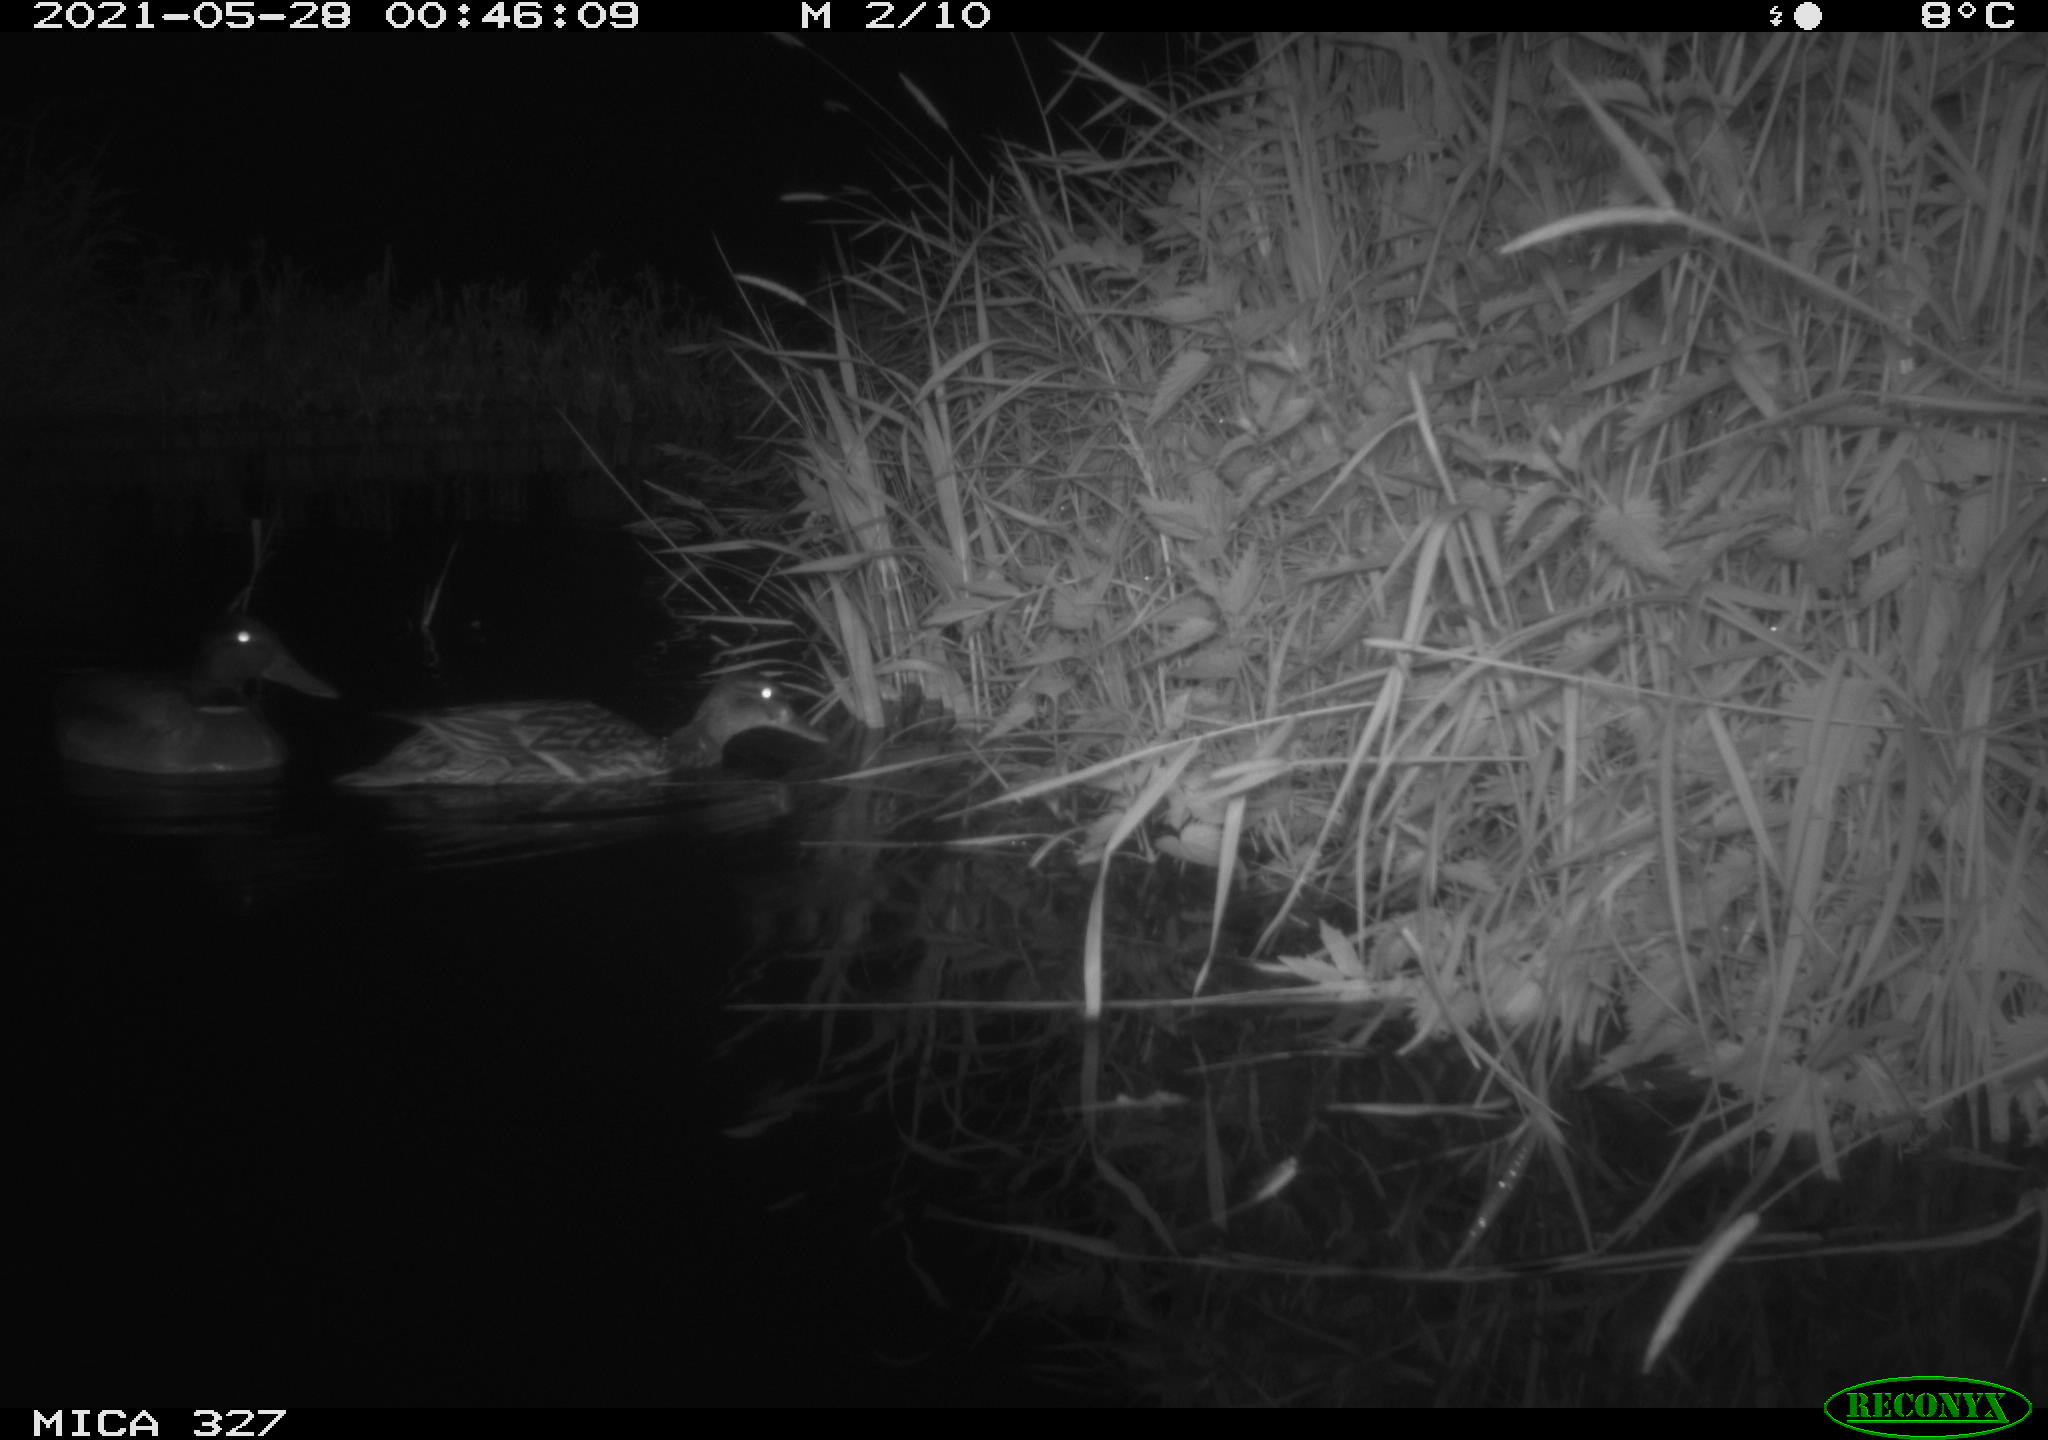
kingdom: Animalia
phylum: Chordata
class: Aves
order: Anseriformes
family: Anatidae
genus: Anas
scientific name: Anas platyrhynchos
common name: Mallard
